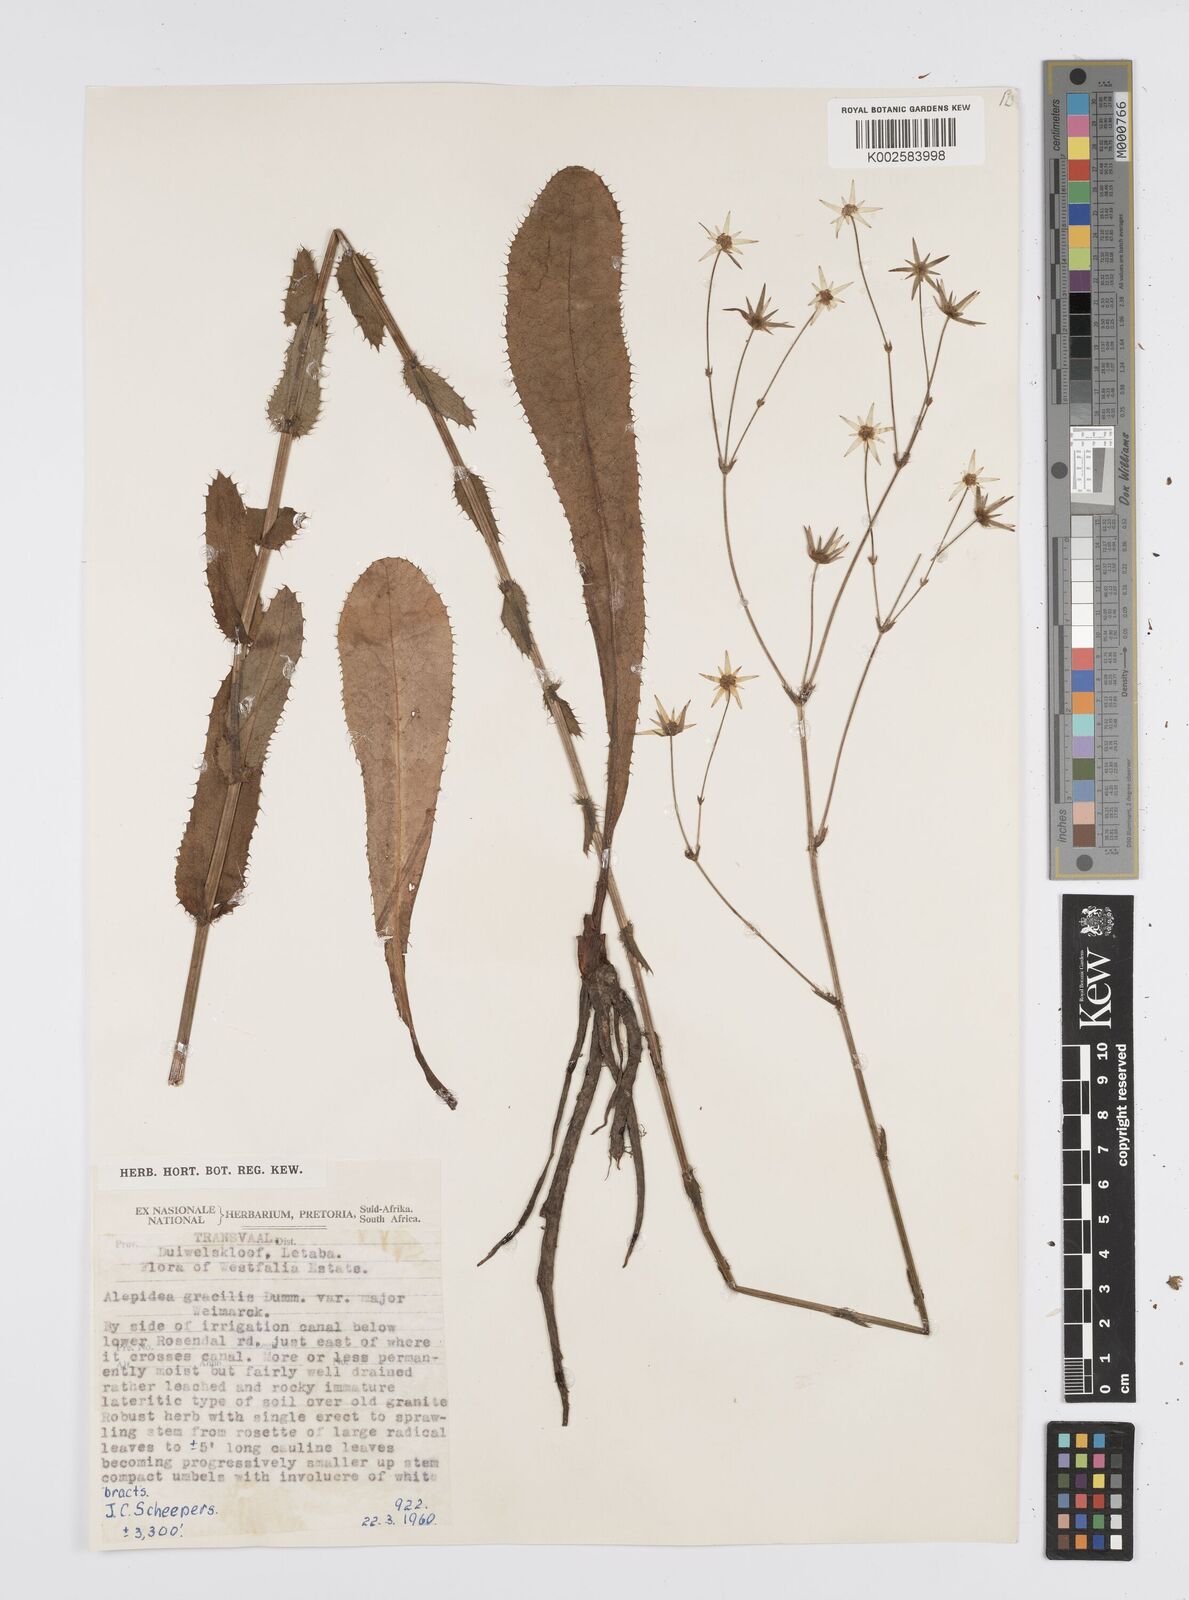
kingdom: Plantae
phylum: Tracheophyta
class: Magnoliopsida
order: Apiales
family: Apiaceae
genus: Alepidea
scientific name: Alepidea
